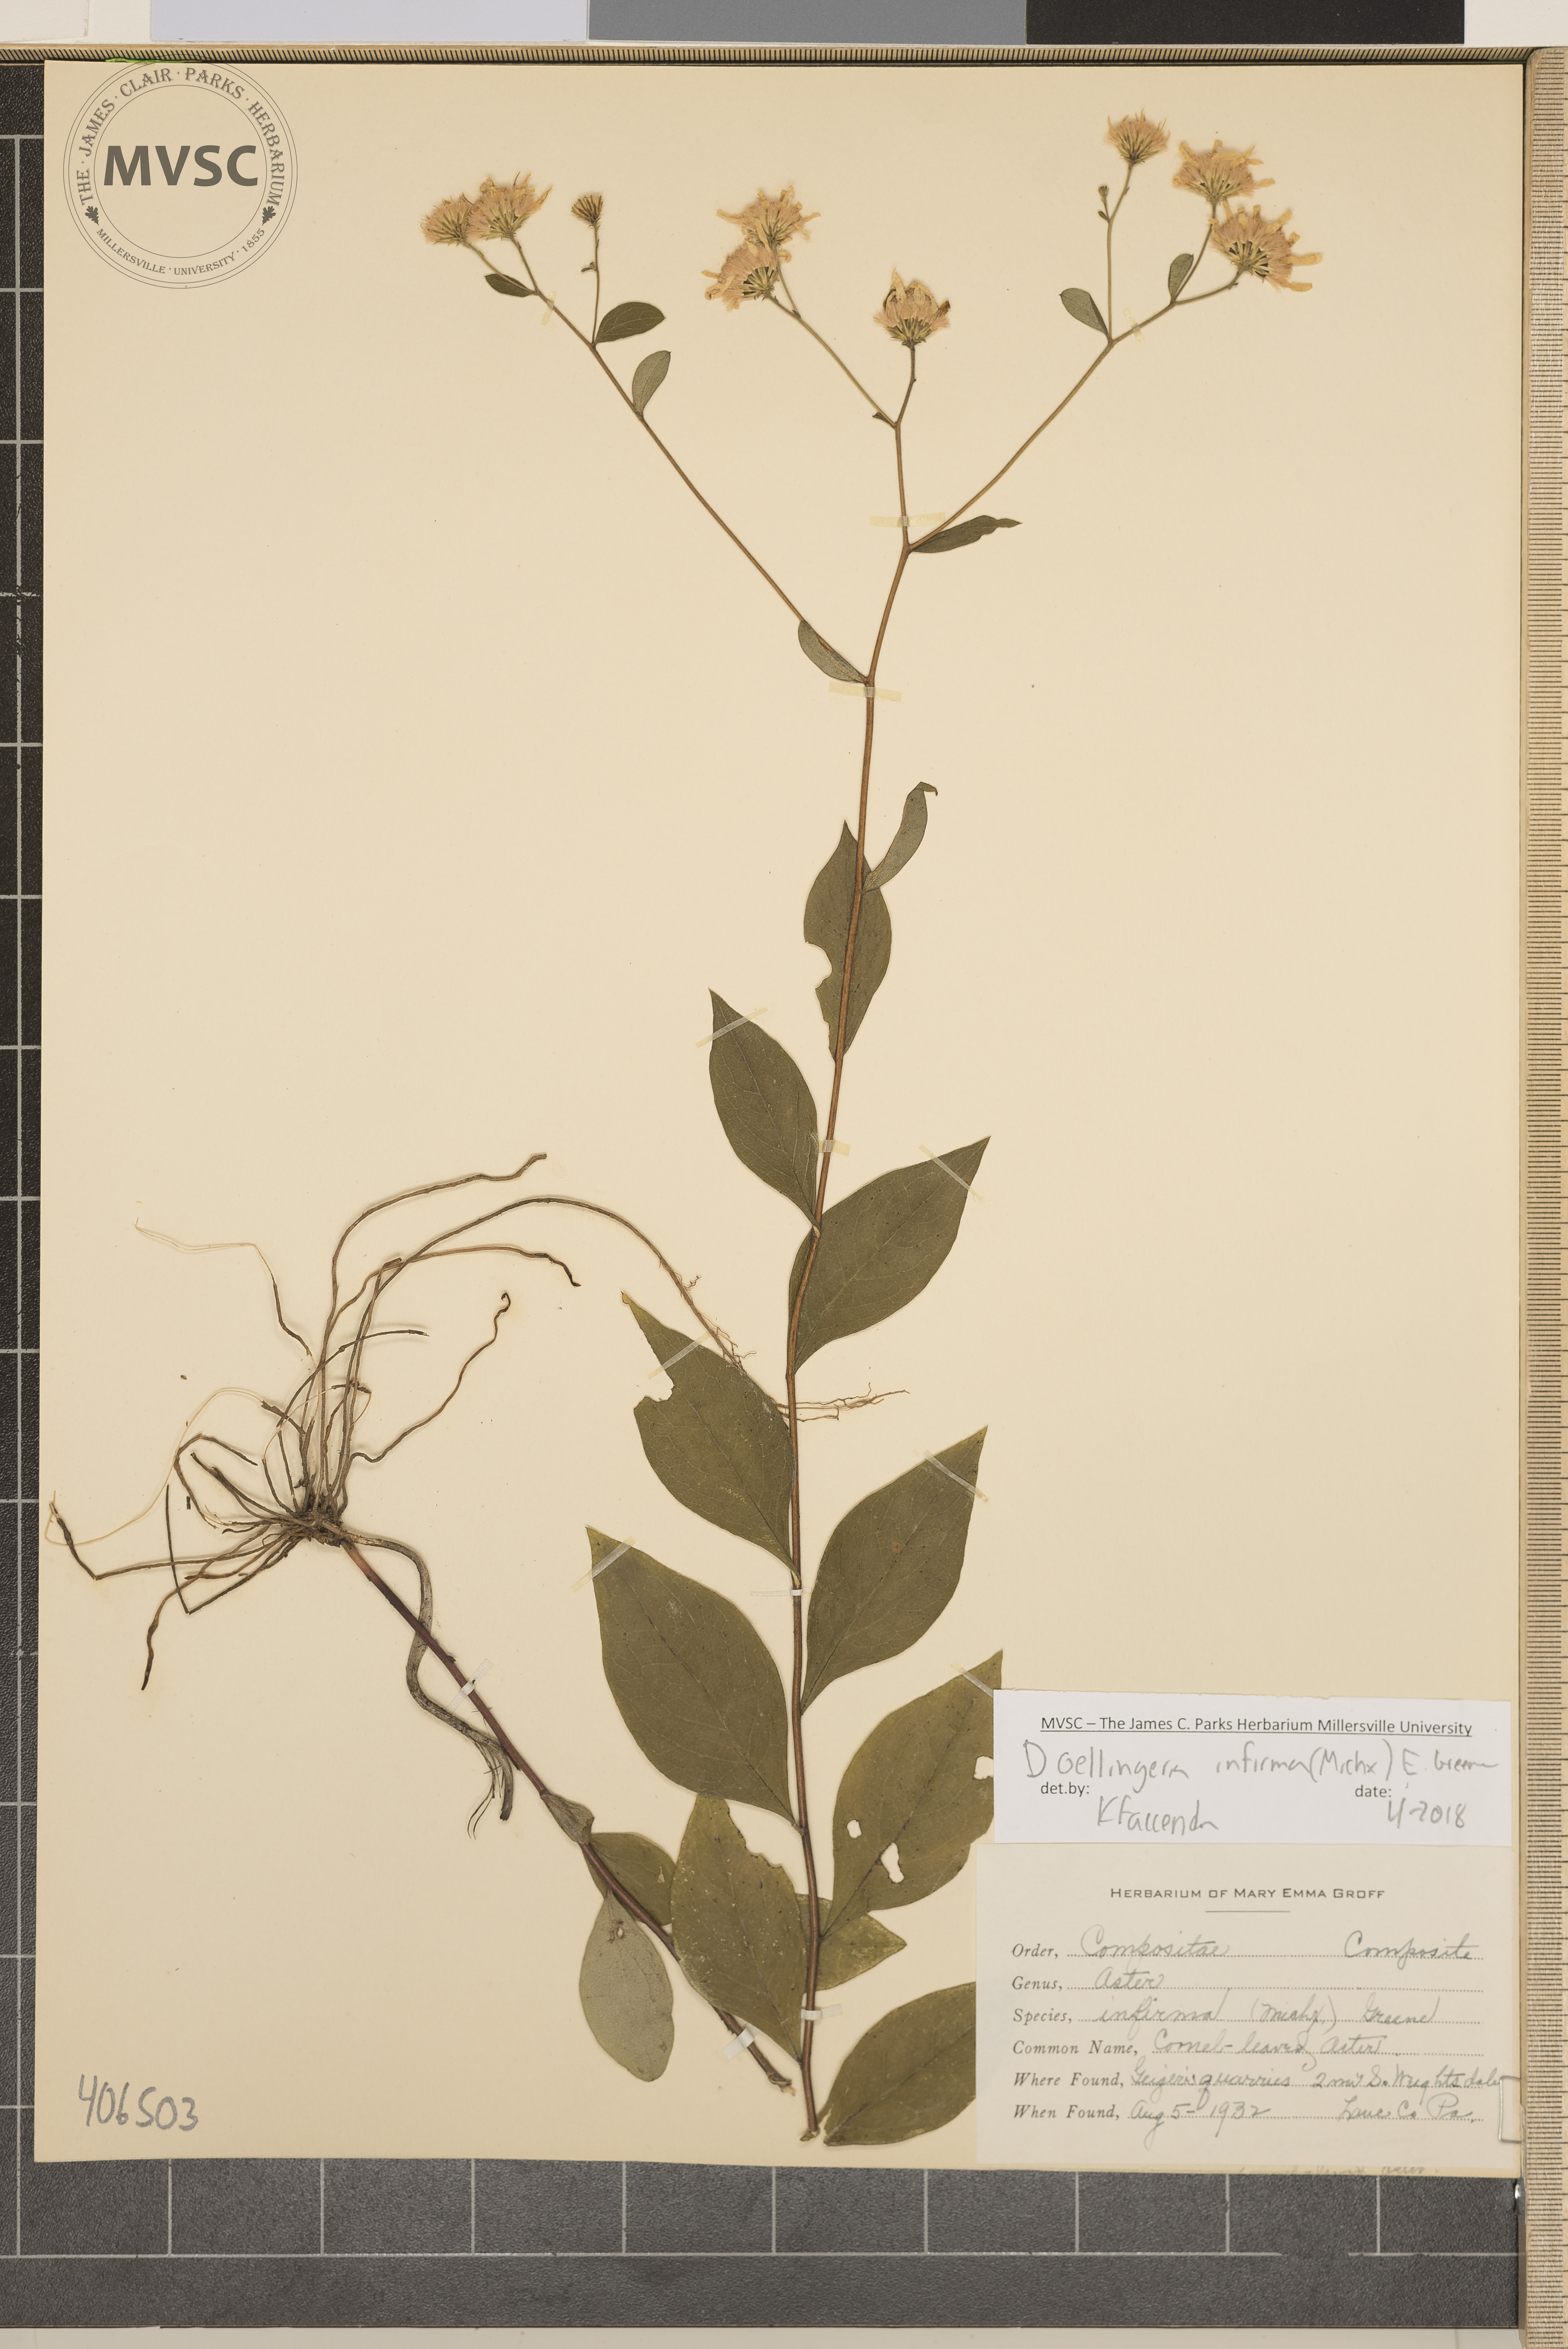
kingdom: Plantae
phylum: Tracheophyta
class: Magnoliopsida
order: Asterales
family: Asteraceae
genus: Doellingeria
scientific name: Doellingeria infirma
